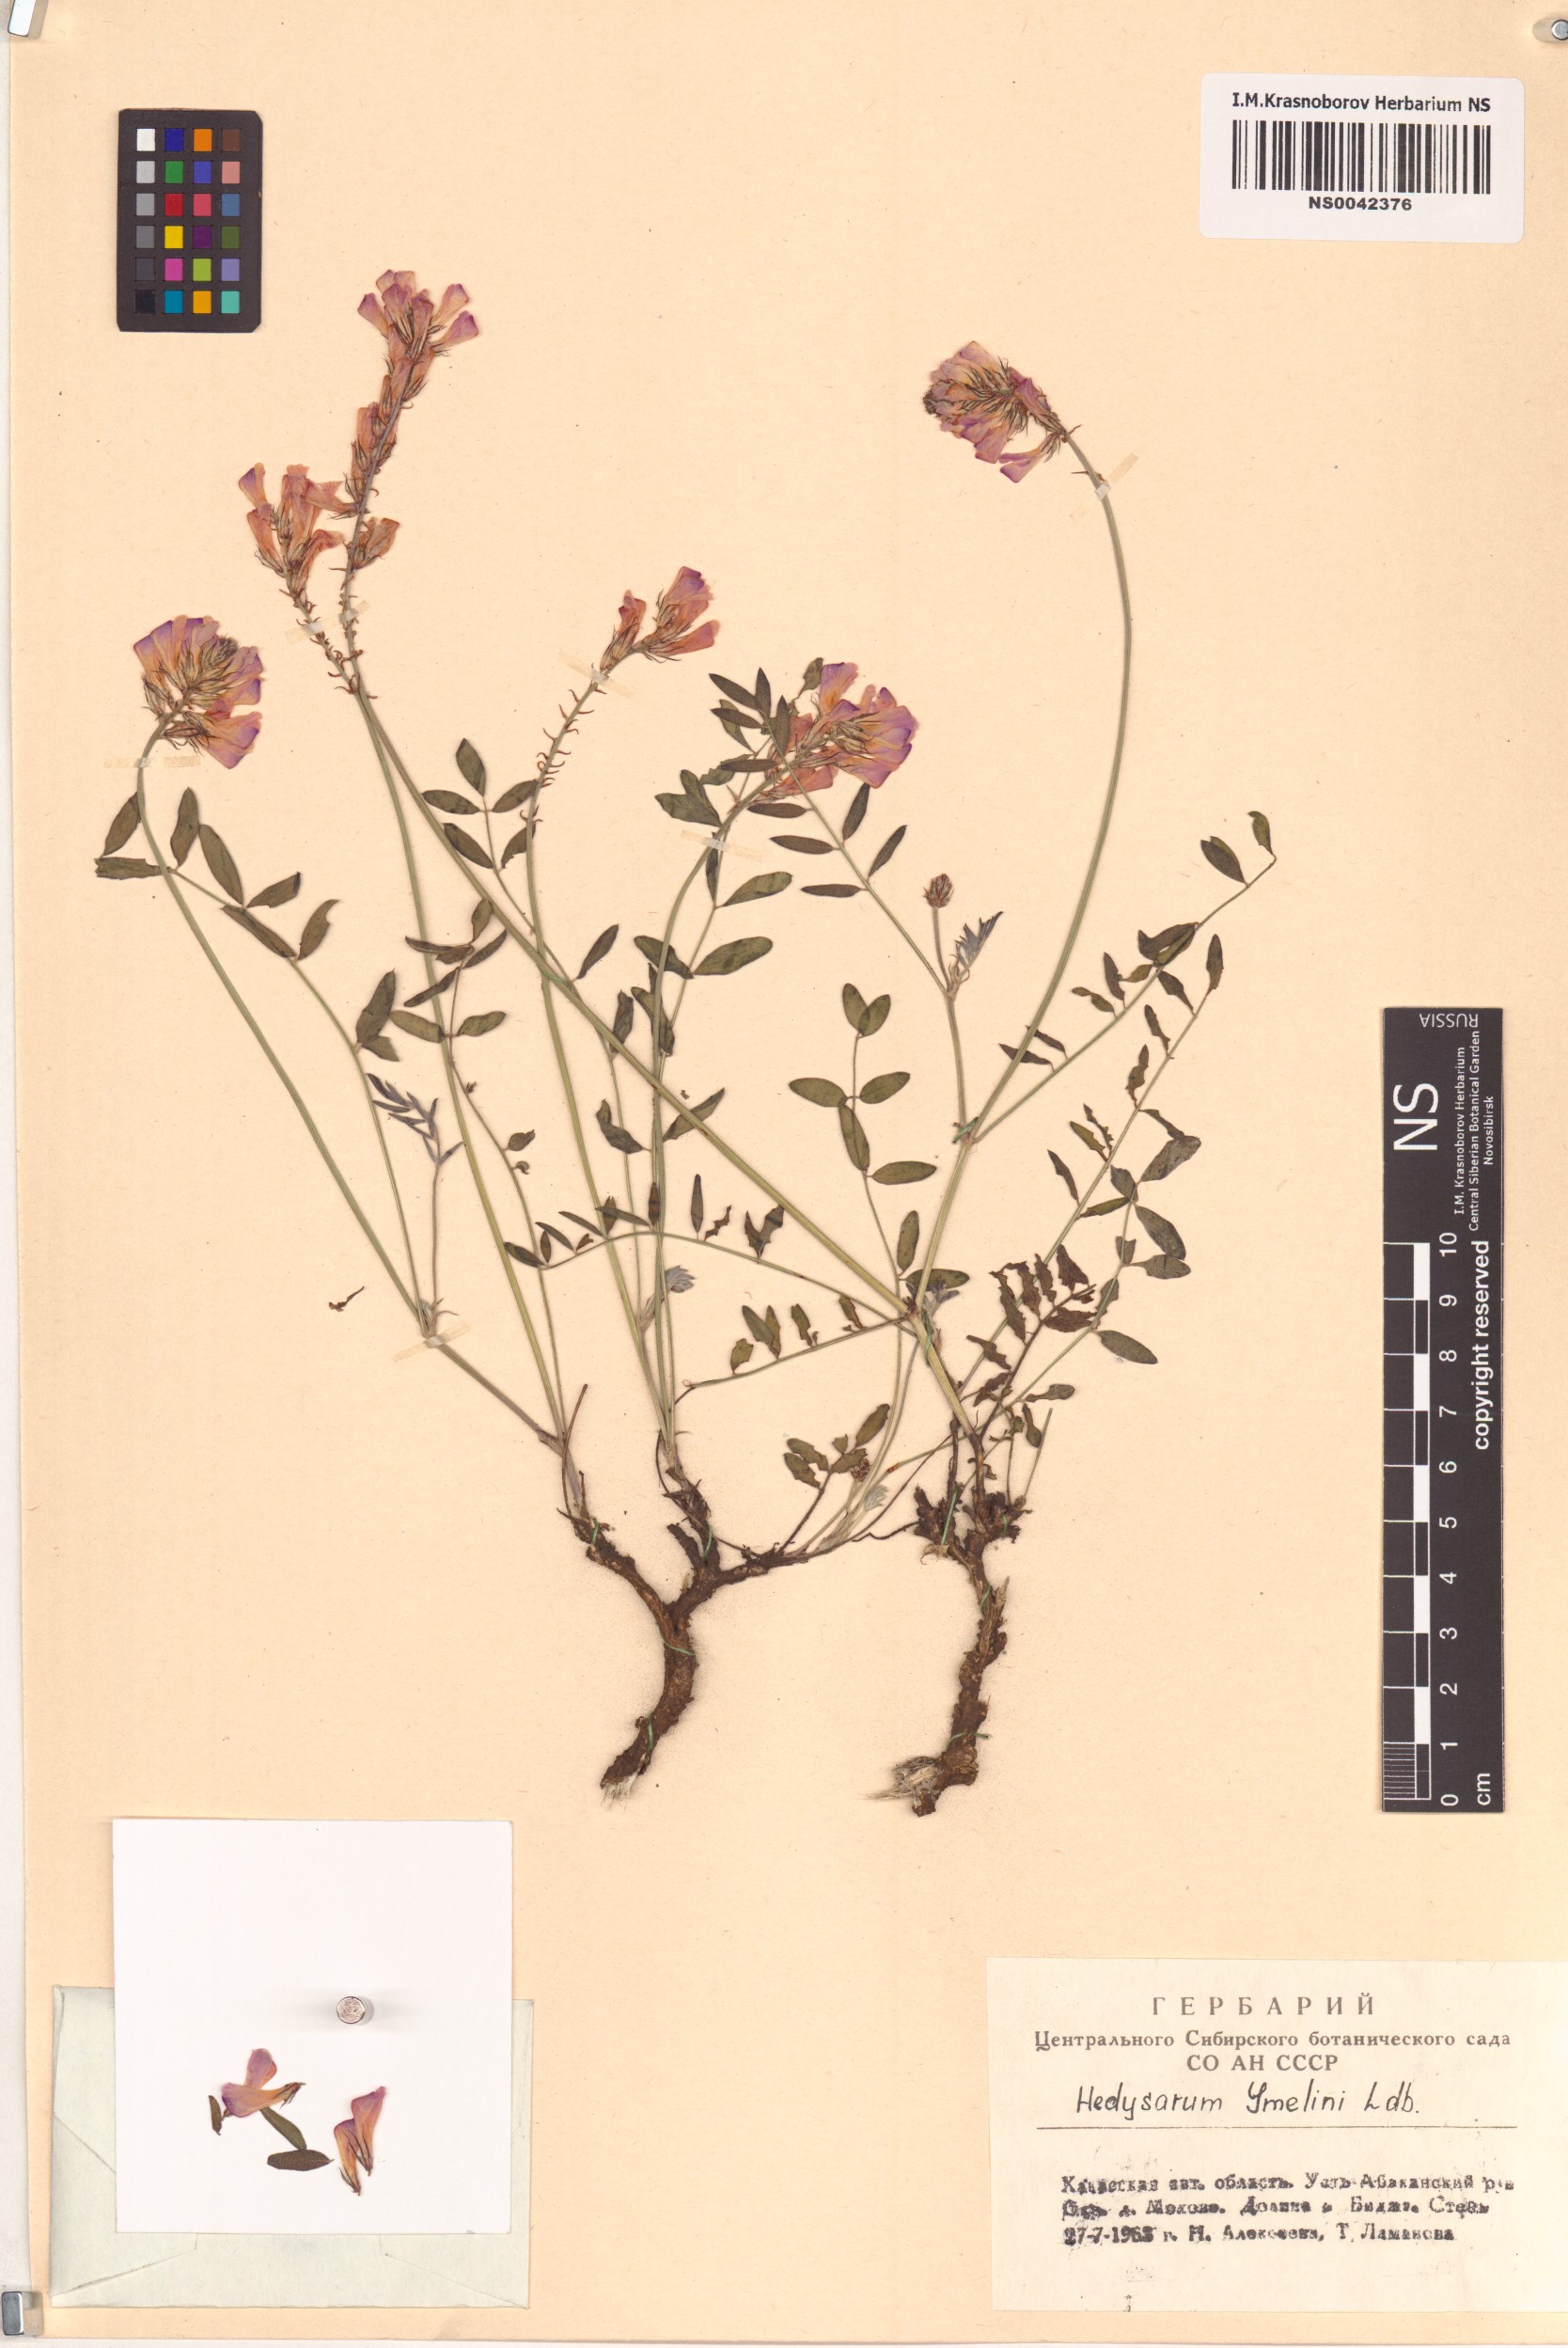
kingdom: Plantae
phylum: Tracheophyta
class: Magnoliopsida
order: Fabales
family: Fabaceae
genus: Hedysarum
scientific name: Hedysarum gmelinii
